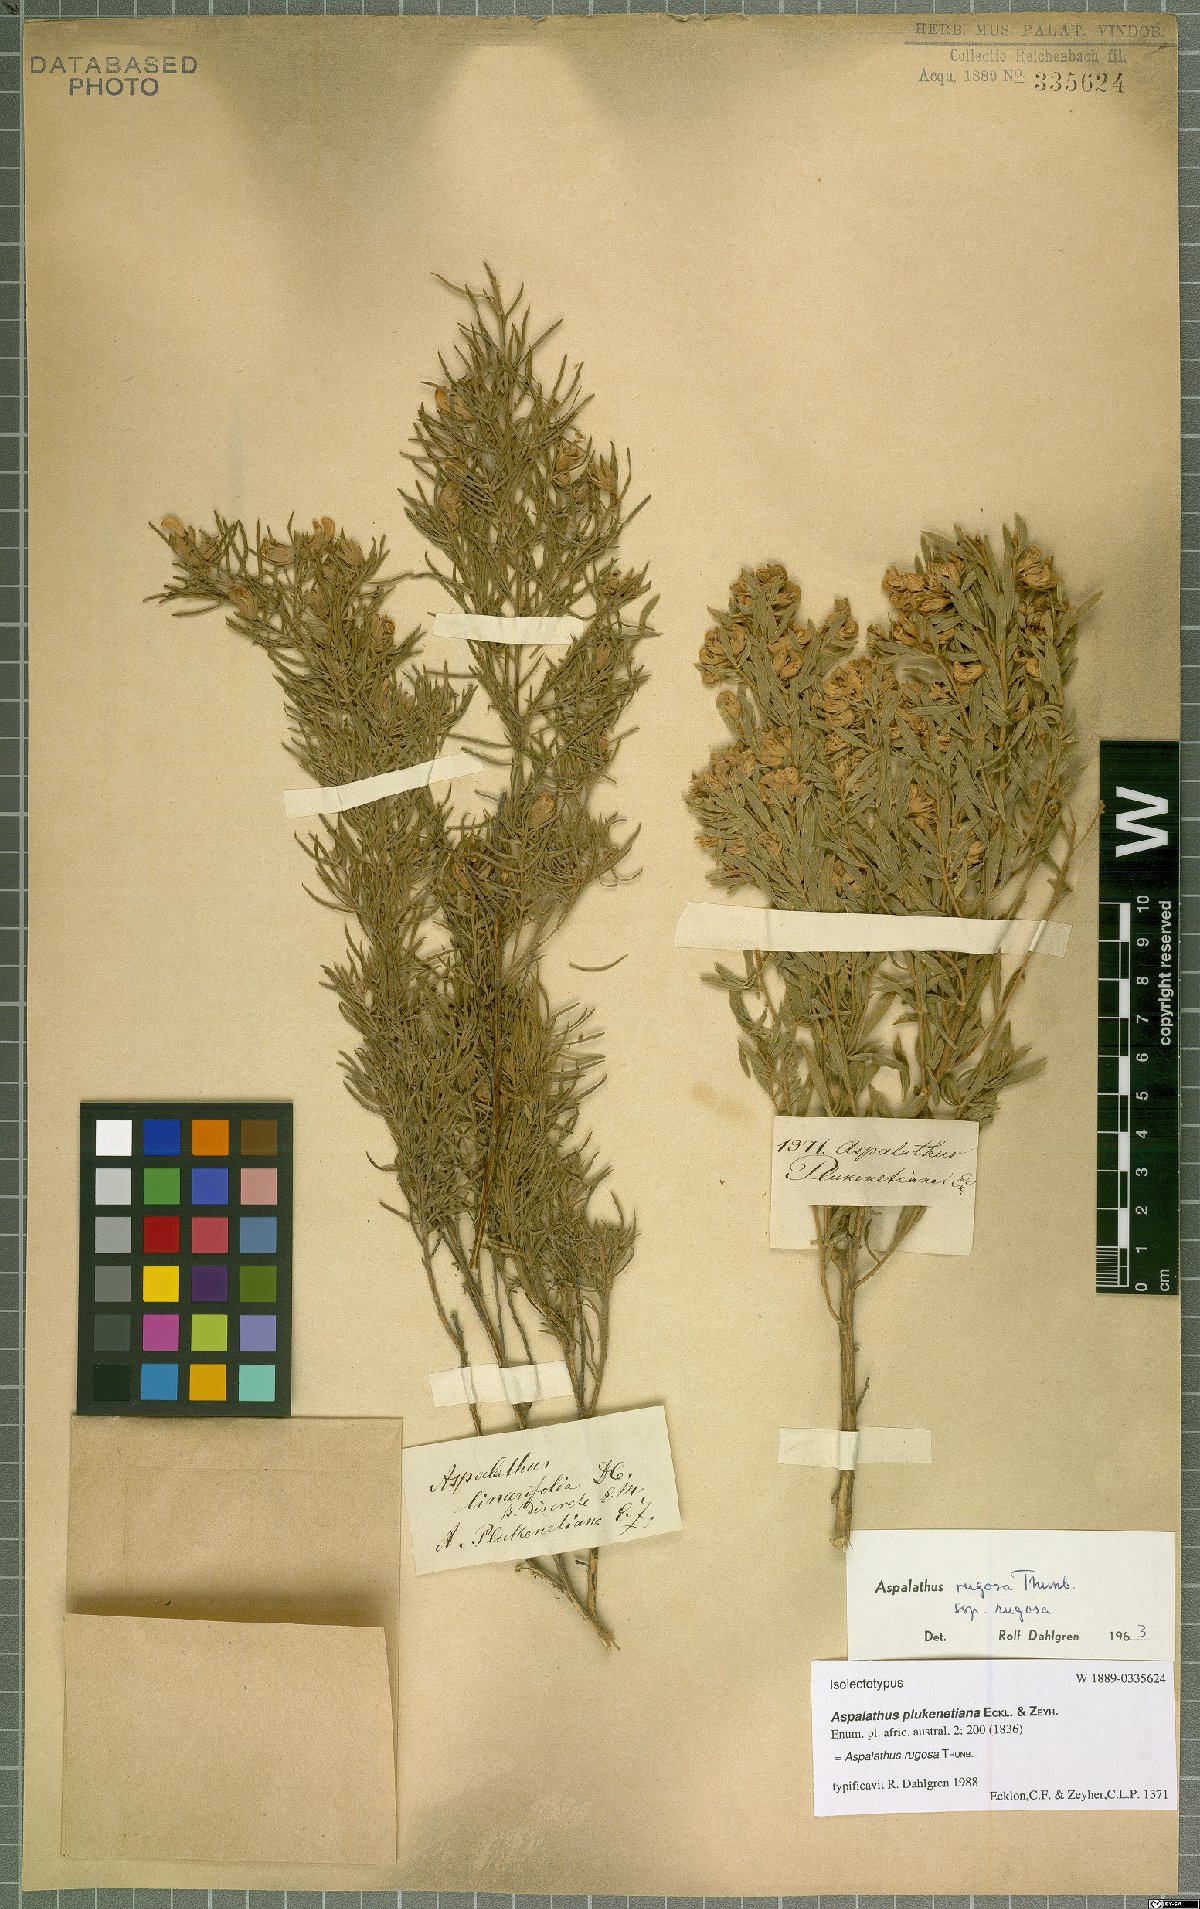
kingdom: Plantae
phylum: Tracheophyta
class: Magnoliopsida
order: Fabales
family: Fabaceae
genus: Aspalathus
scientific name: Aspalathus rugosa
